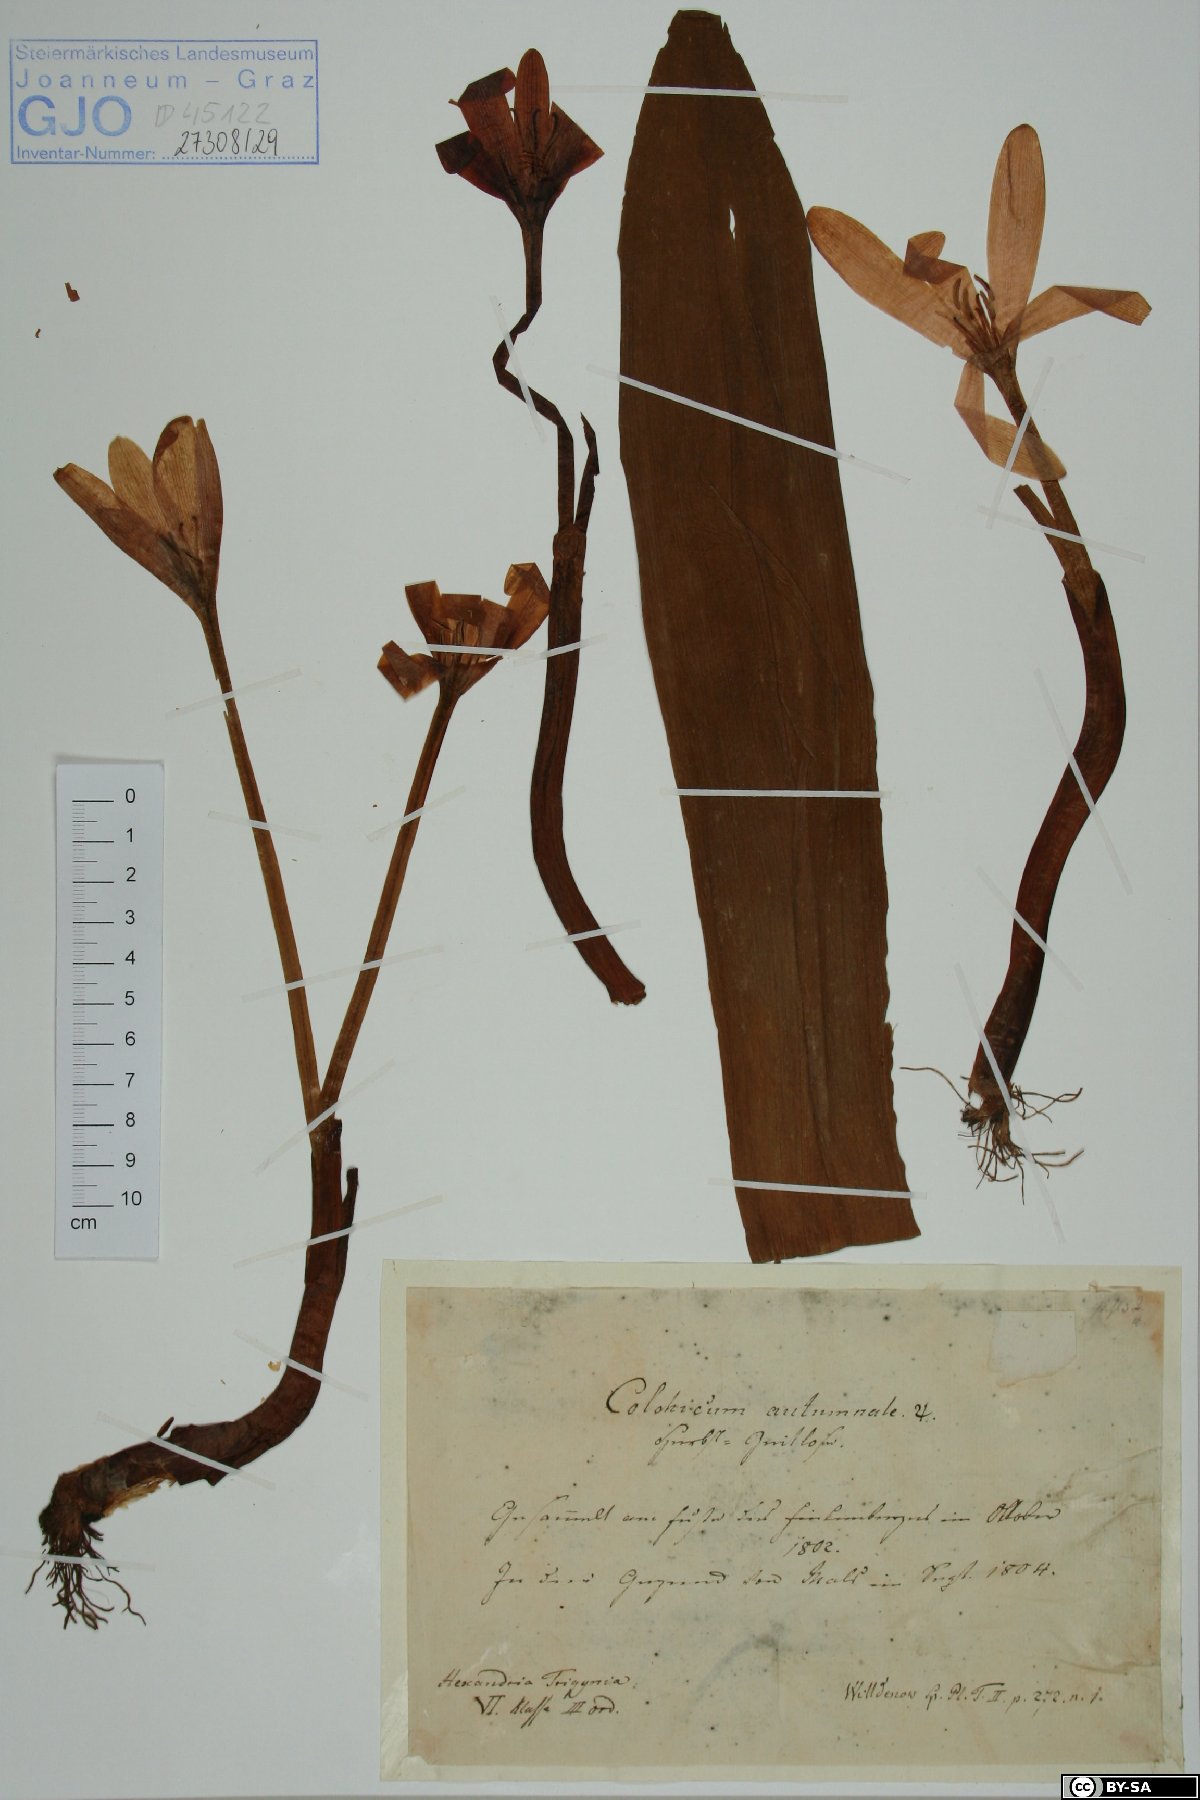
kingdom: Plantae
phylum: Tracheophyta
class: Liliopsida
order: Liliales
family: Colchicaceae
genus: Colchicum
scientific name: Colchicum autumnale
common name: Autumn crocus
